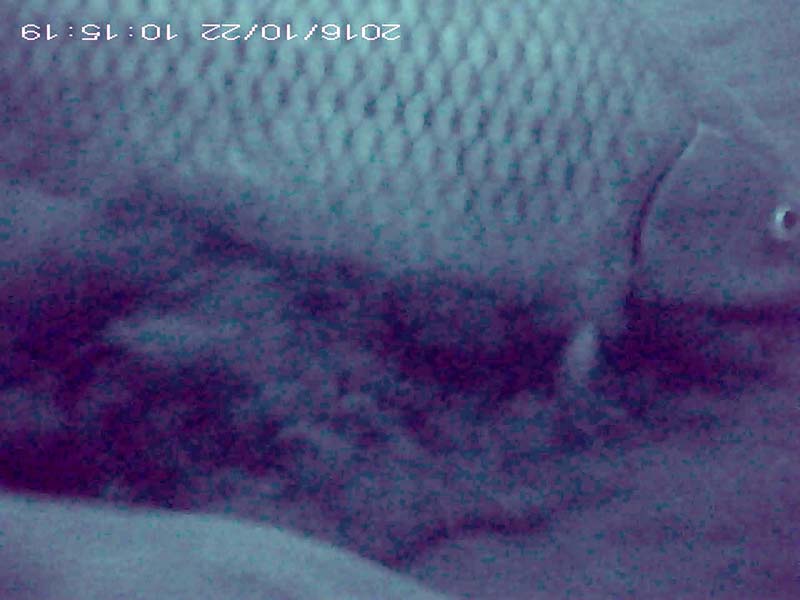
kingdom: Animalia
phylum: Chordata
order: Cypriniformes
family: Cyprinidae
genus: Cyprinus
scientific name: Cyprinus carpio
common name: コイ
